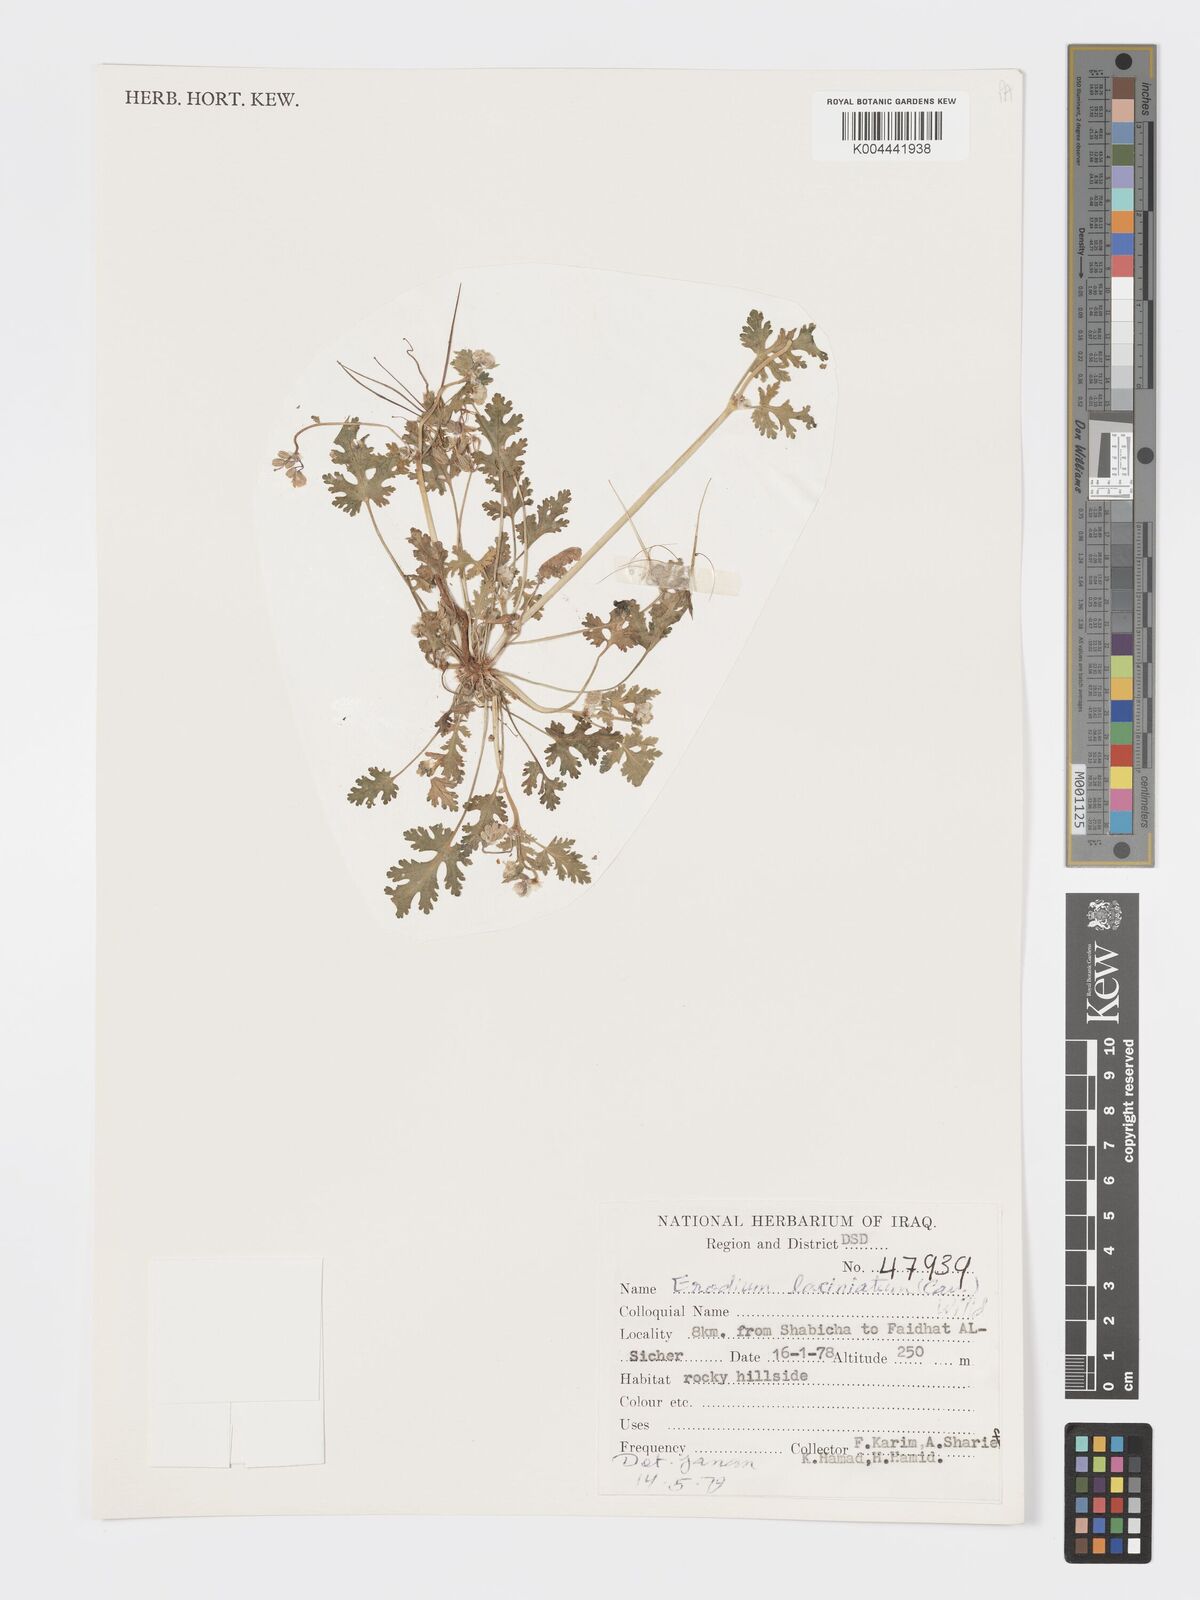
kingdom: Plantae
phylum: Tracheophyta
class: Magnoliopsida
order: Geraniales
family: Geraniaceae
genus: Erodium
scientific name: Erodium laciniatum
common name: Cutleaf stork's bill
